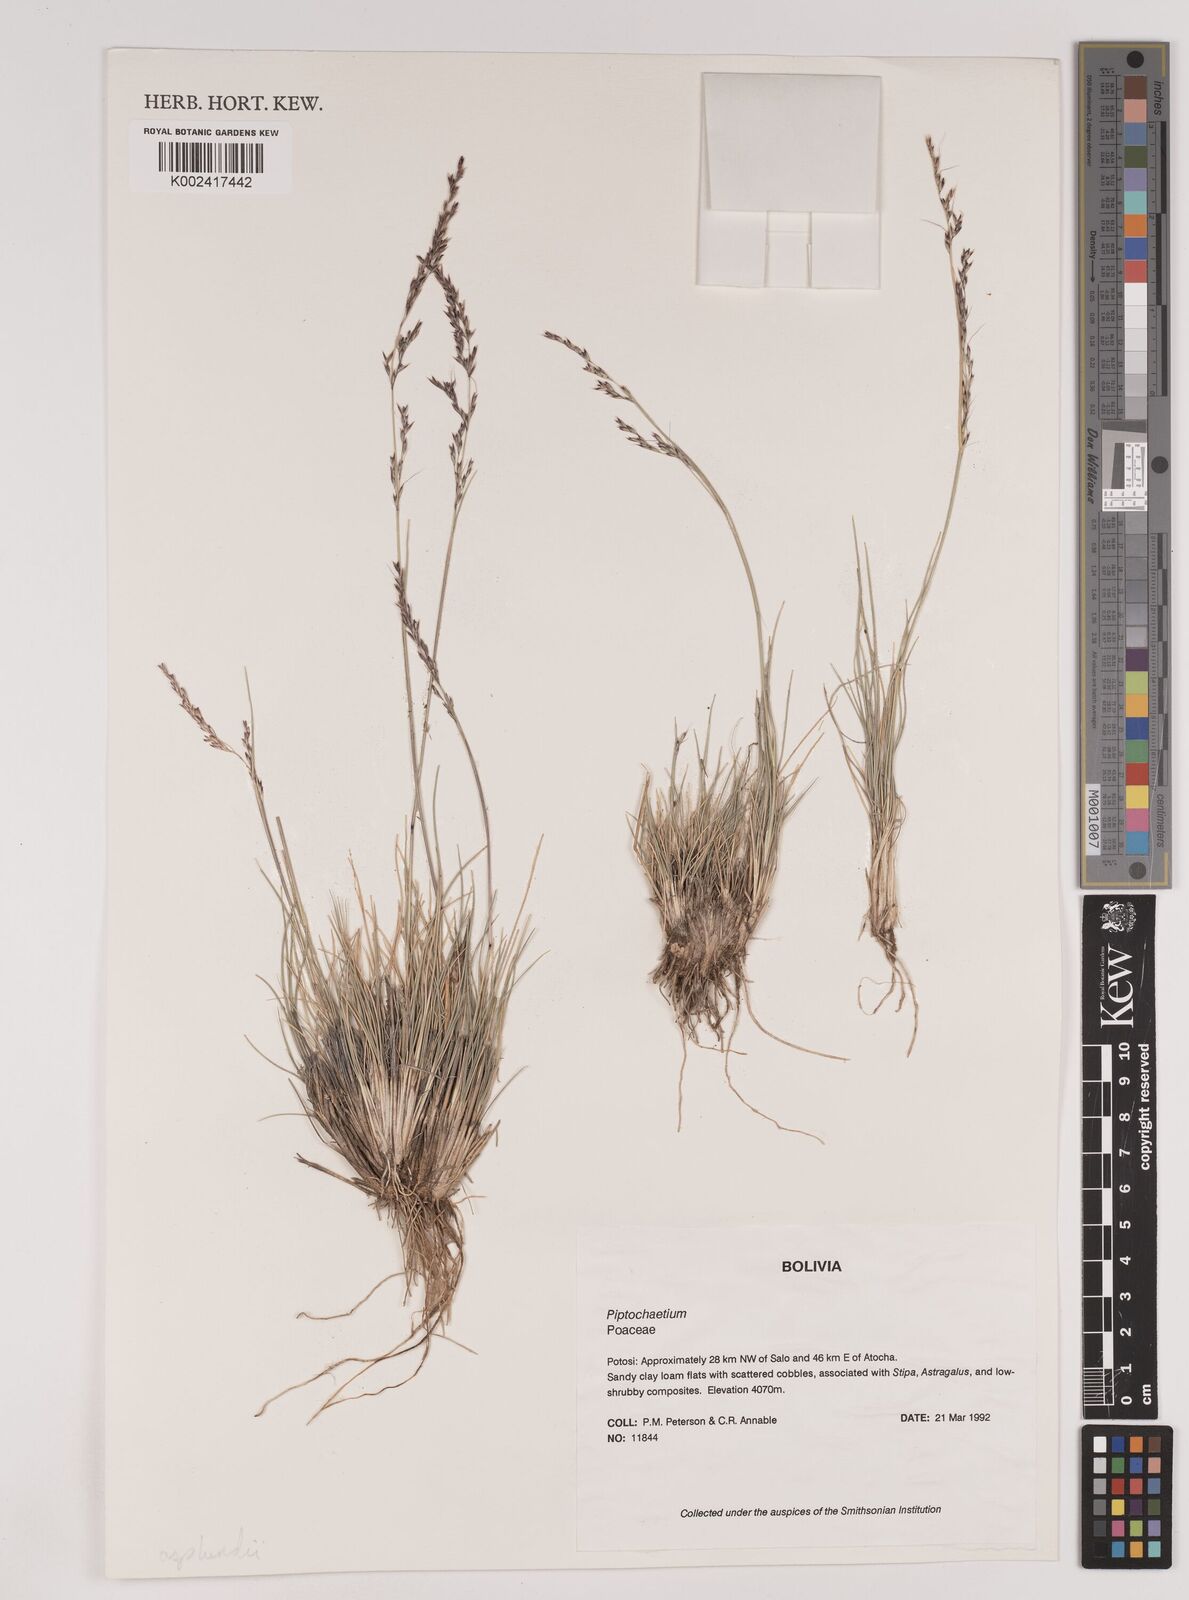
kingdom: Plantae
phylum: Tracheophyta
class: Liliopsida
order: Poales
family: Poaceae
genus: Nassella
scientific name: Nassella asplundii
